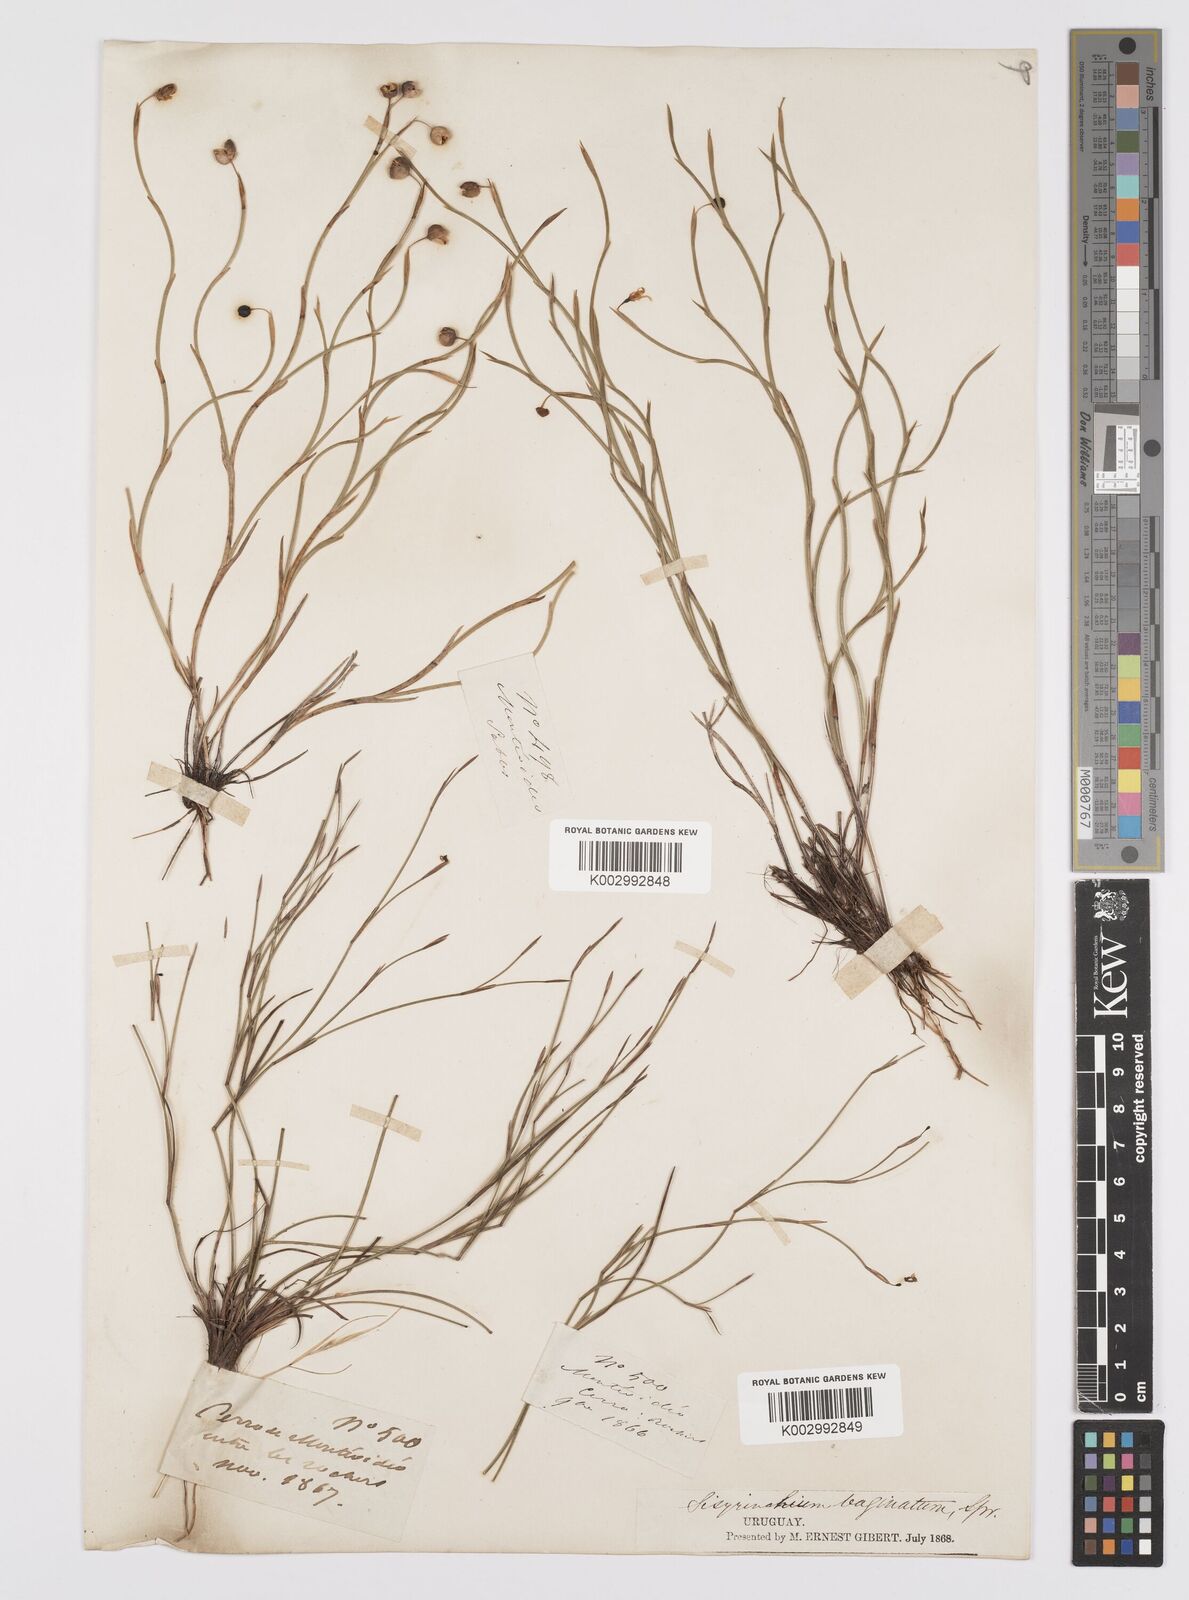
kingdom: Plantae
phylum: Tracheophyta
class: Liliopsida
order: Asparagales
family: Iridaceae
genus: Sisyrinchium
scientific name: Sisyrinchium vaginatum
